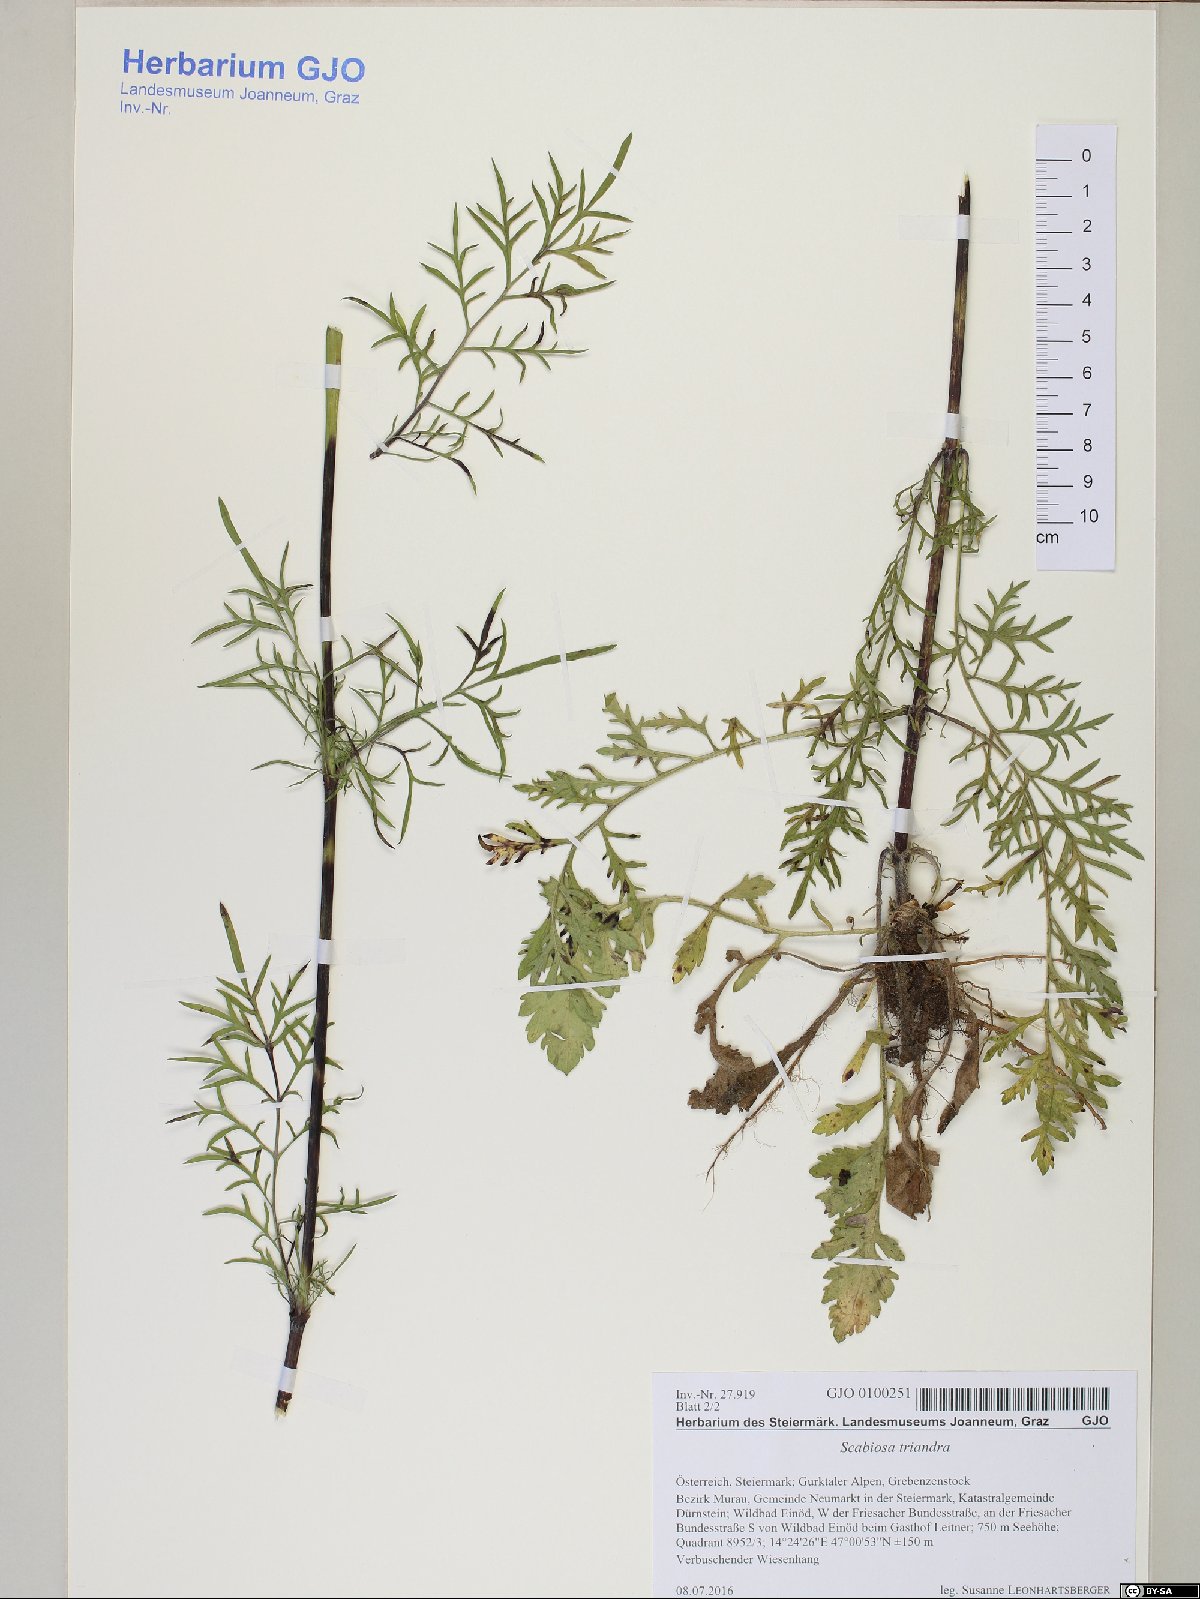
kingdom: Plantae
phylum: Tracheophyta
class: Magnoliopsida
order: Dipsacales
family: Caprifoliaceae
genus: Scabiosa
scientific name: Scabiosa triandra
